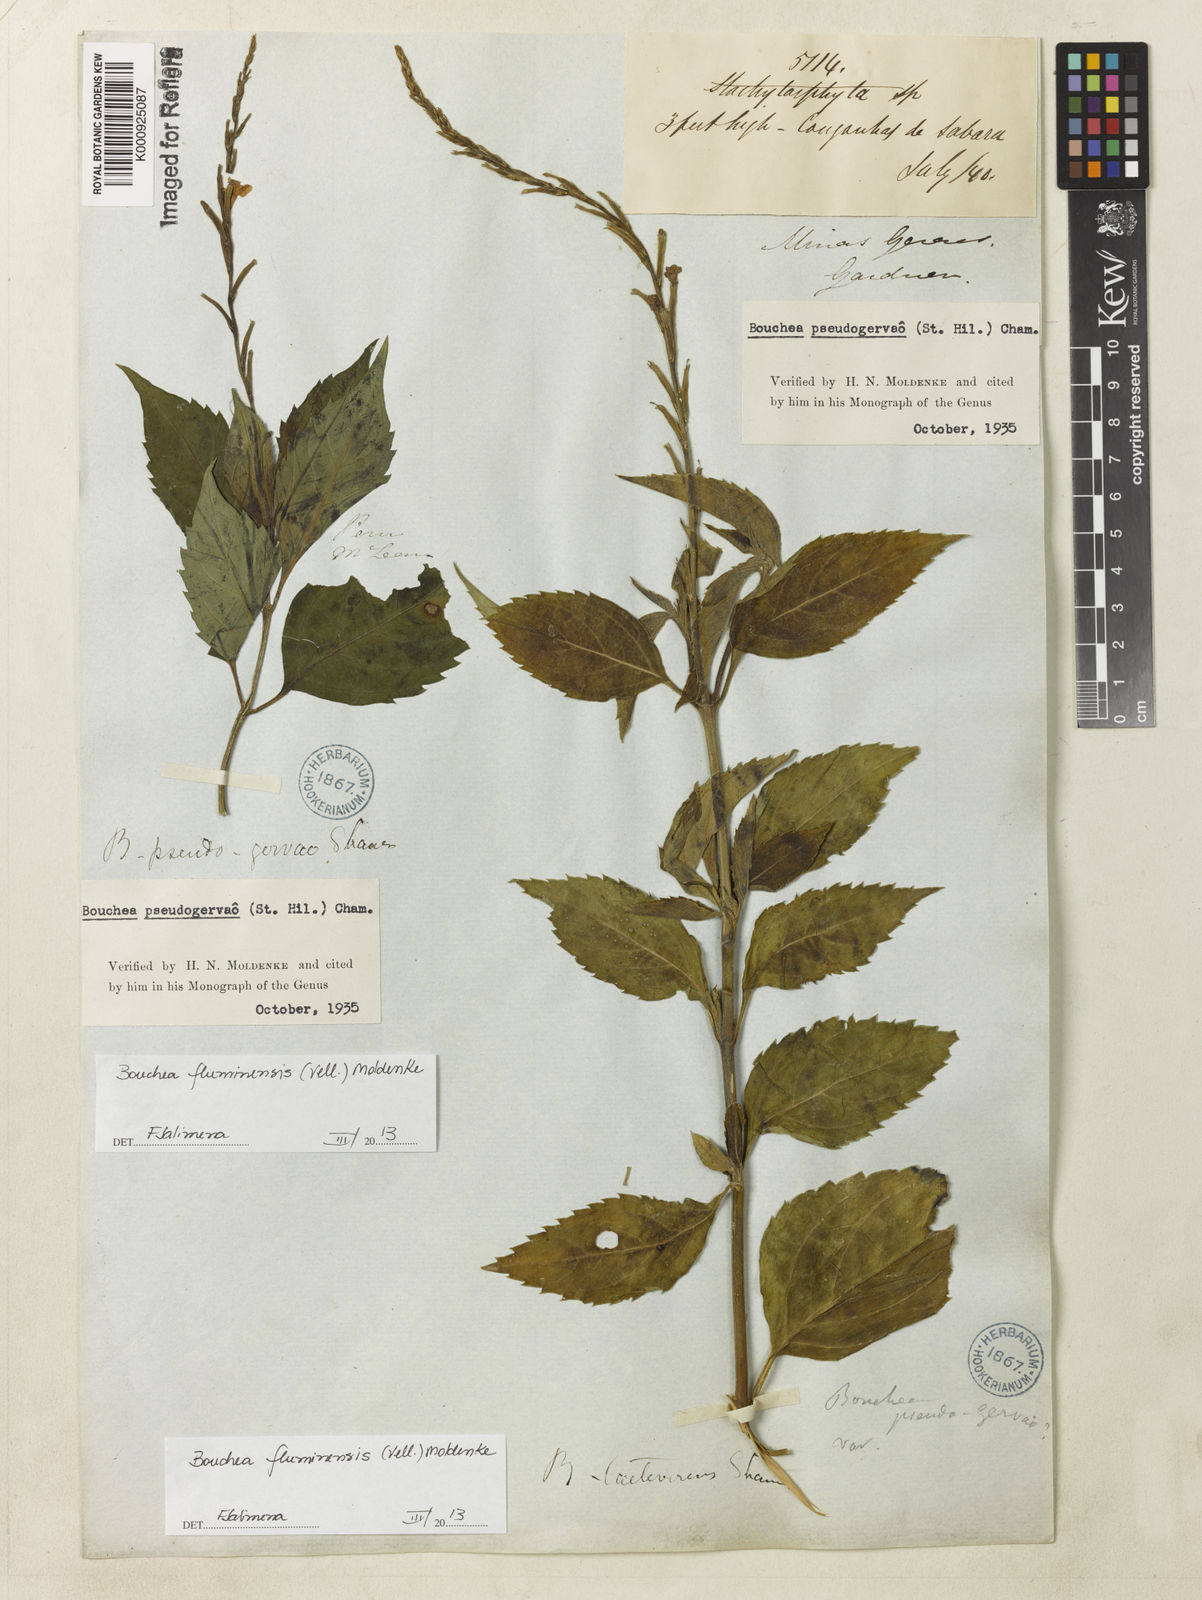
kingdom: Plantae
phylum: Tracheophyta
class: Magnoliopsida
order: Lamiales
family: Verbenaceae
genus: Bouchea
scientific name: Bouchea pseudogervao
